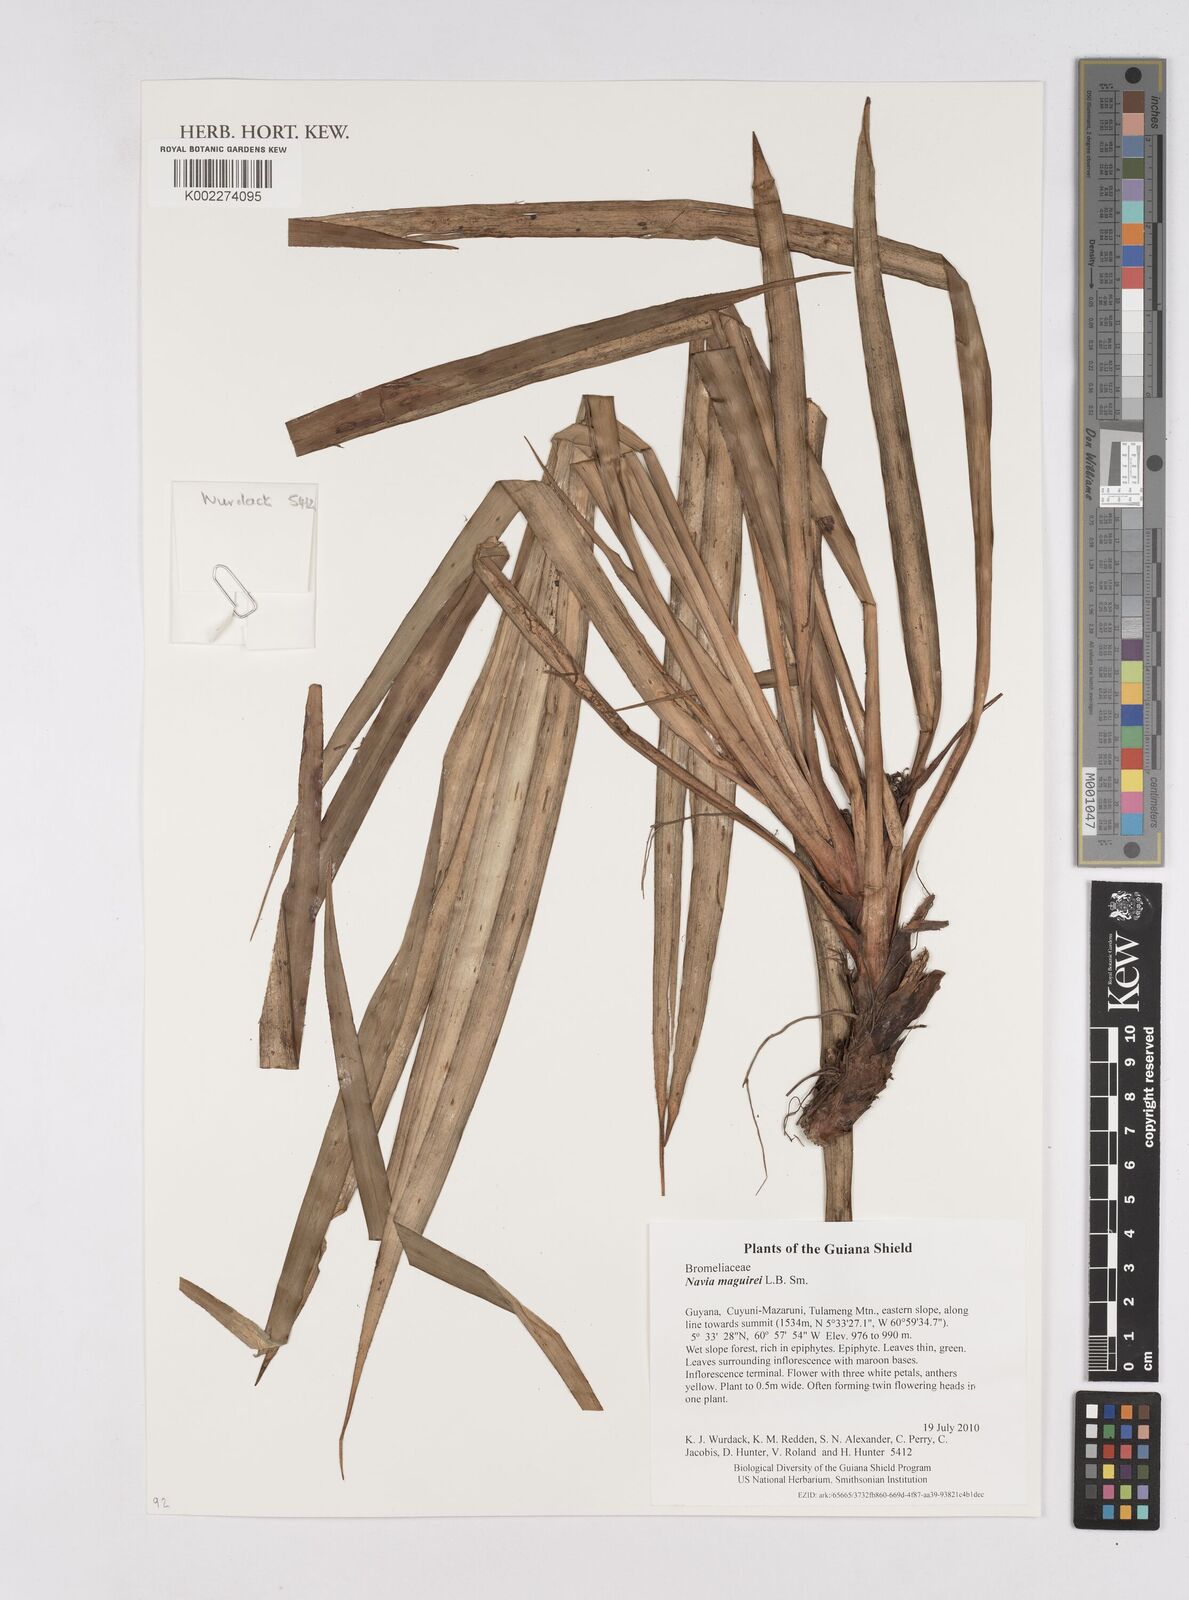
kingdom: Plantae
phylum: Tracheophyta
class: Liliopsida
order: Poales
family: Bromeliaceae
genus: Navia
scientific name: Navia maguirei
